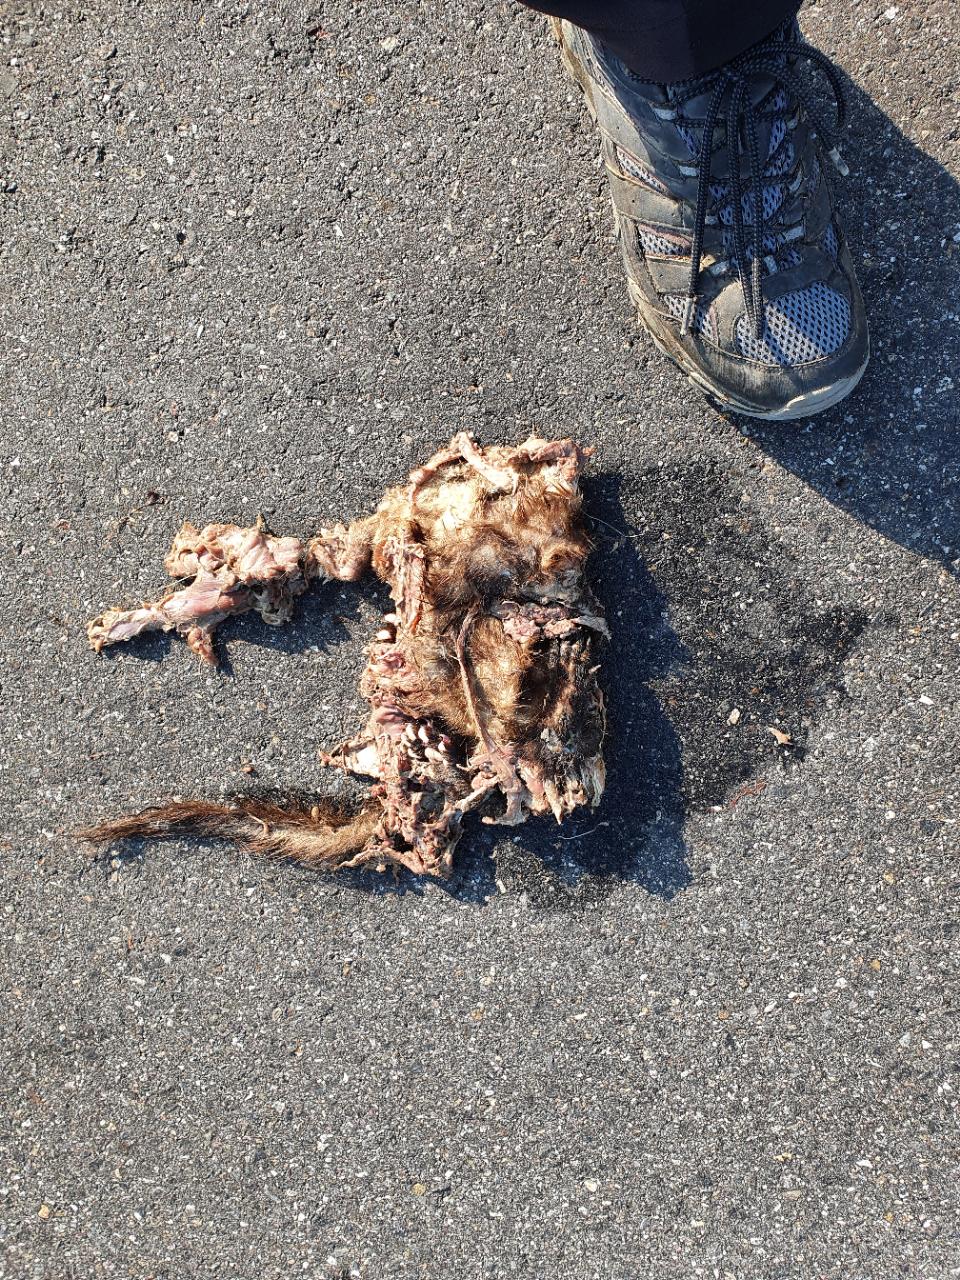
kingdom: Animalia
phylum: Chordata
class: Mammalia
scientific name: Mammalia
